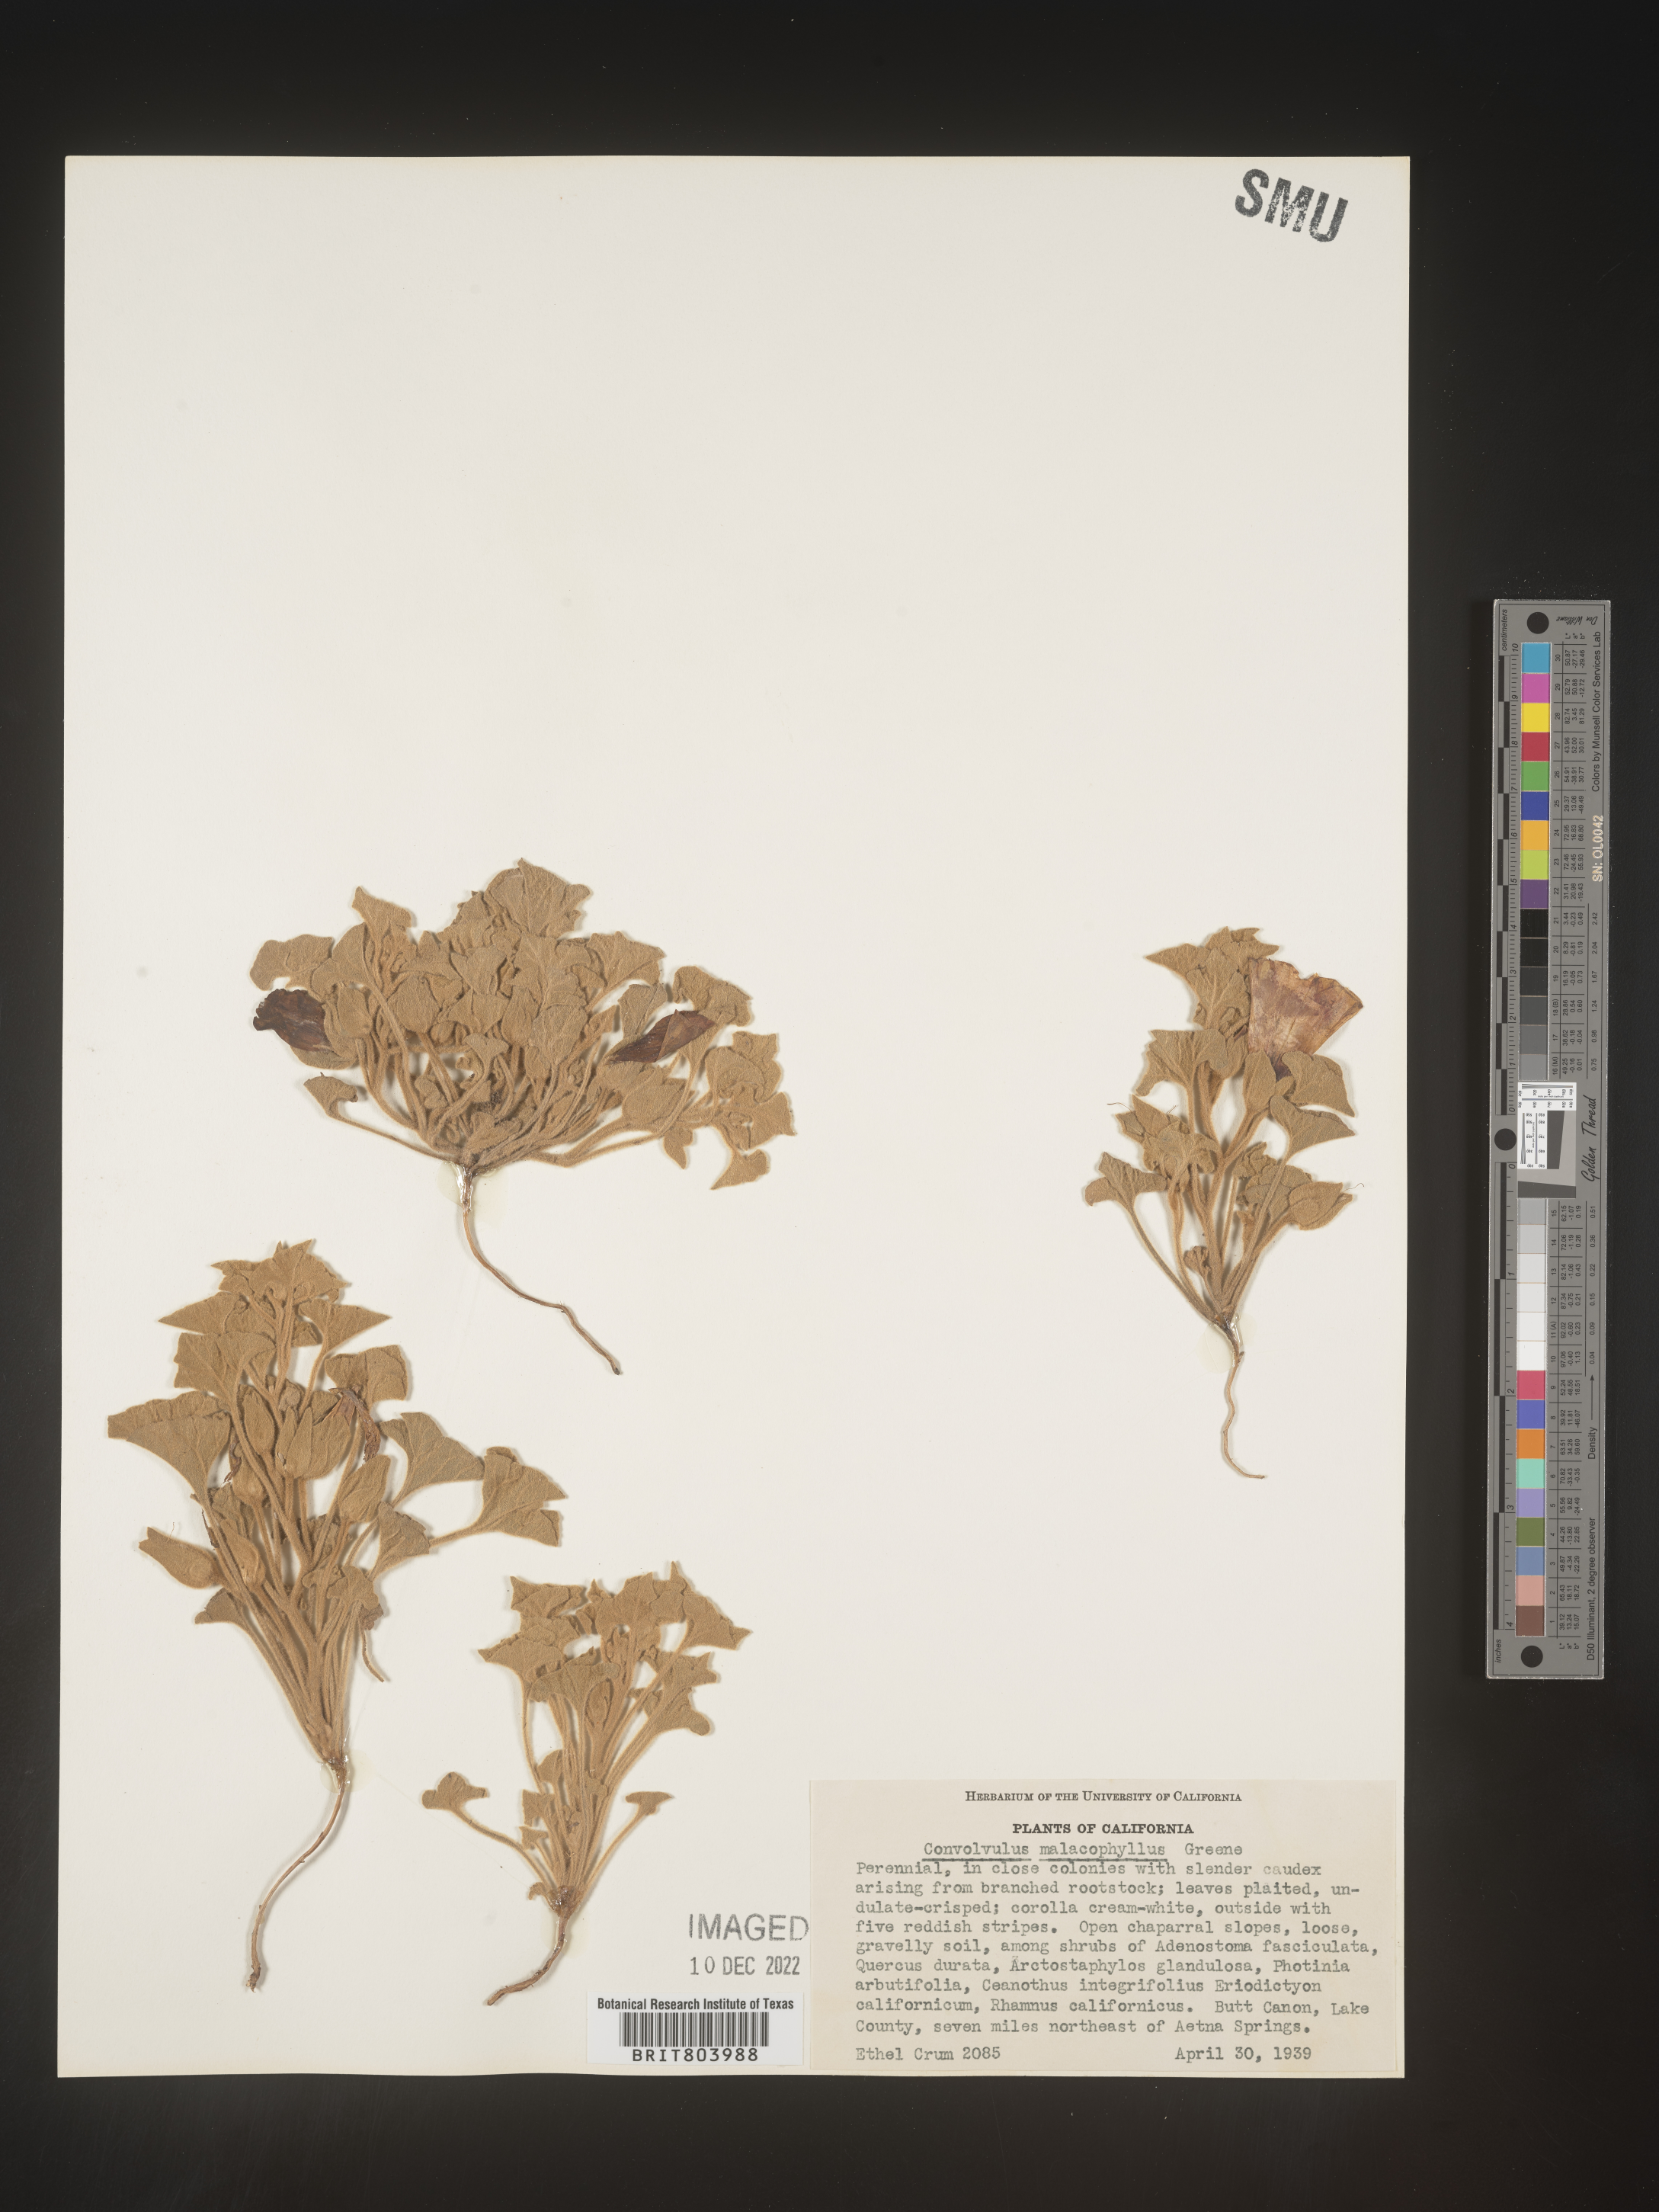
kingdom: Plantae
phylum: Tracheophyta
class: Magnoliopsida
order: Solanales
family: Convolvulaceae
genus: Calystegia
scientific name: Calystegia
